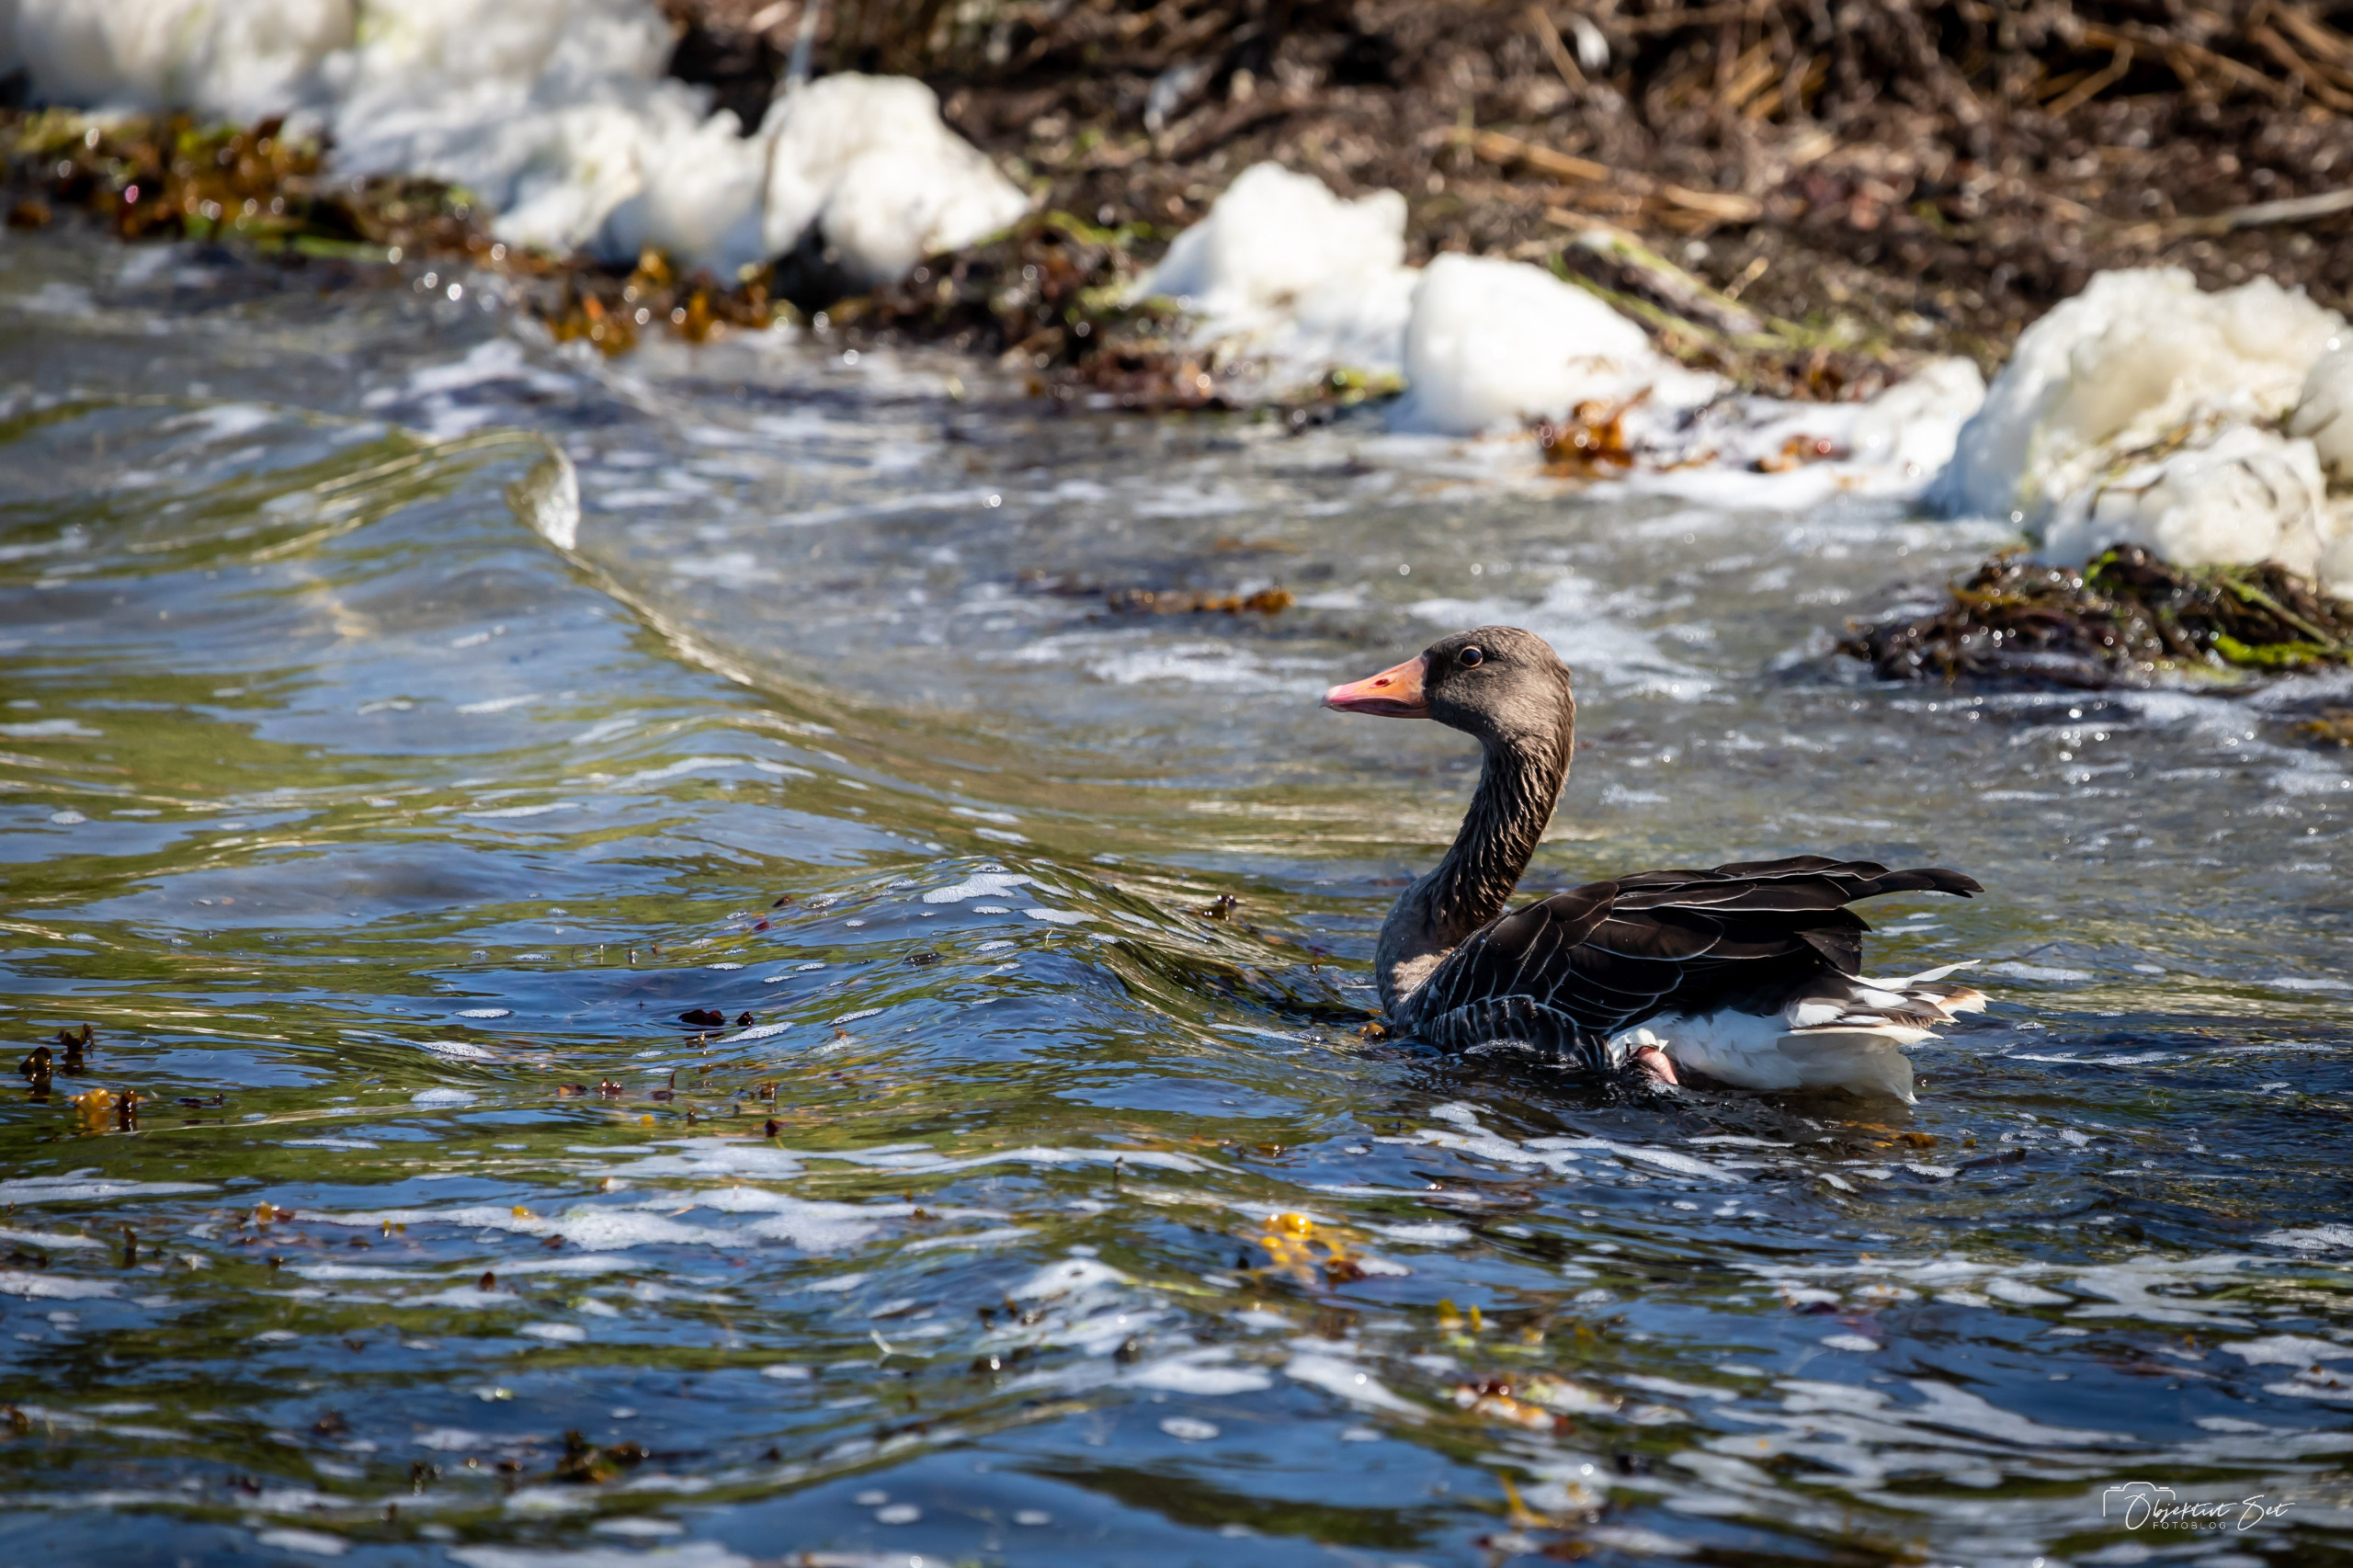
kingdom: Animalia
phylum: Chordata
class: Aves
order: Anseriformes
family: Anatidae
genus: Anser
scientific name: Anser anser
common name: Grågås
